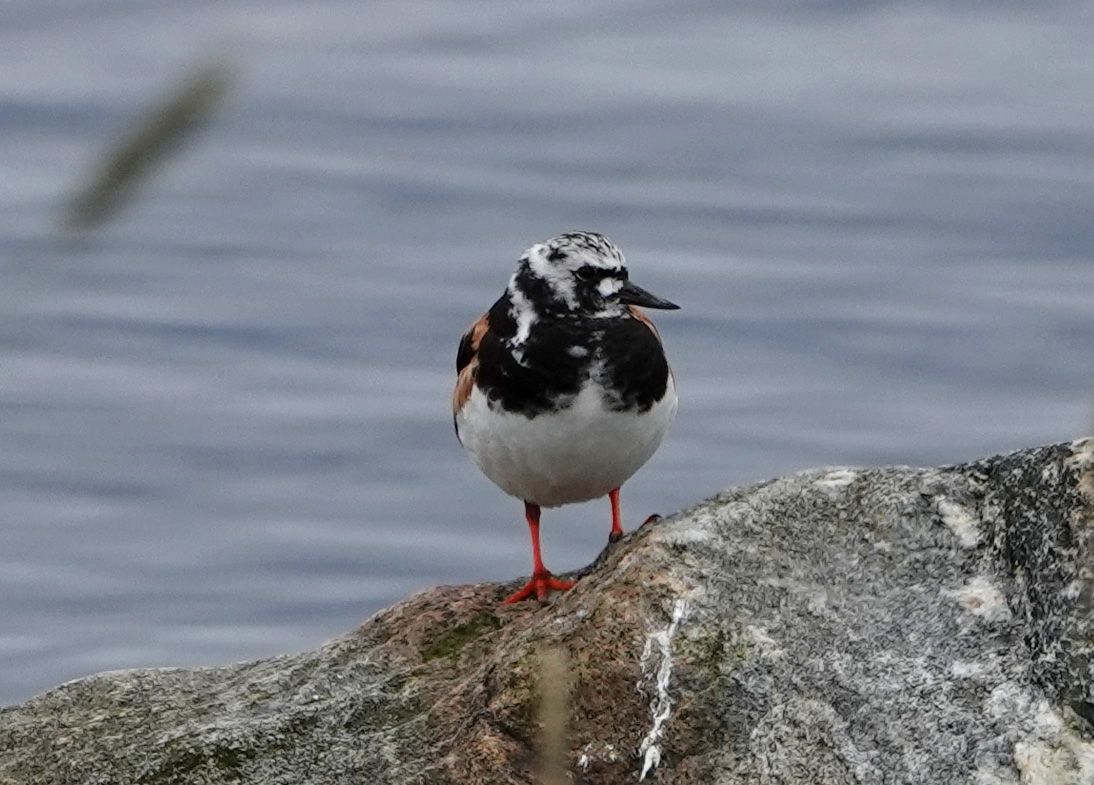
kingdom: Animalia
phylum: Chordata
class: Aves
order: Charadriiformes
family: Scolopacidae
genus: Arenaria
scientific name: Arenaria interpres
